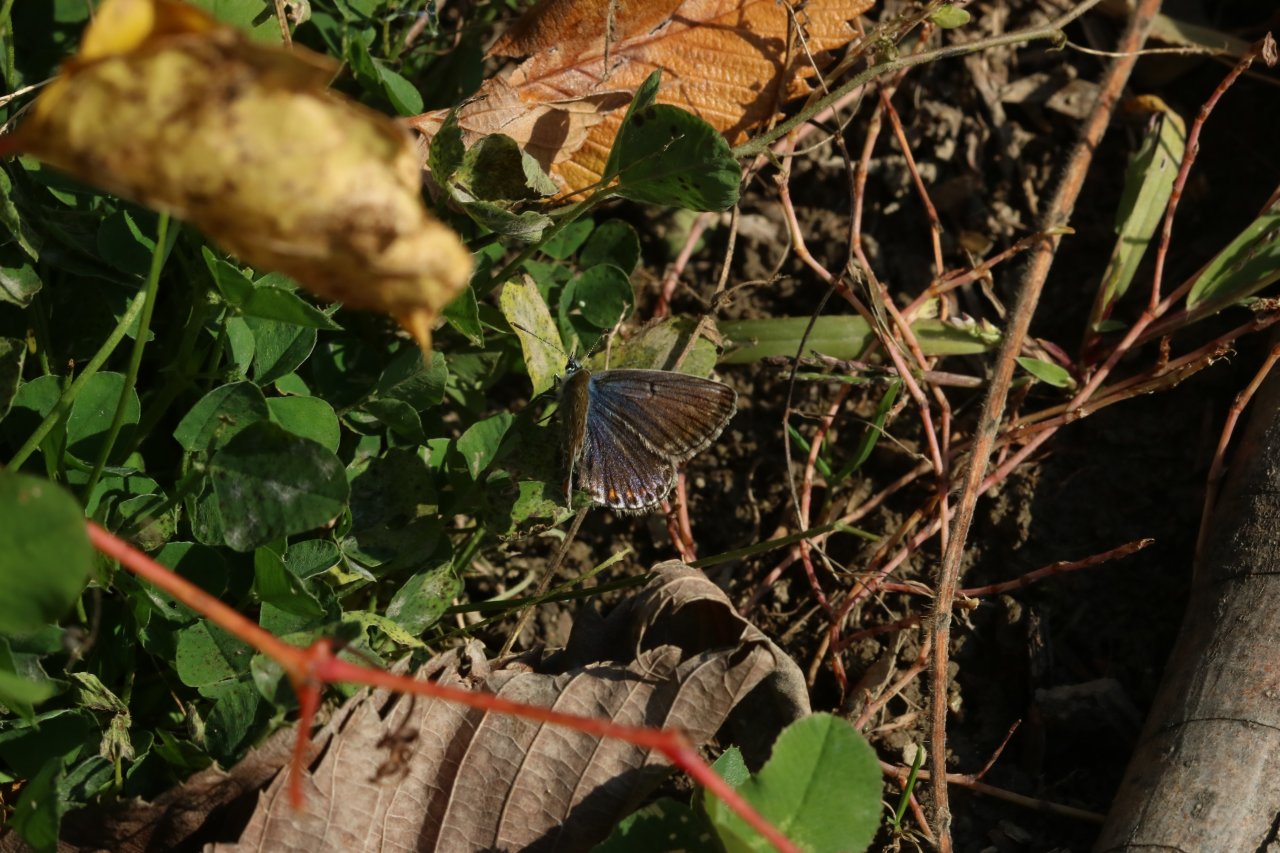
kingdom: Animalia
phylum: Arthropoda
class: Insecta
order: Lepidoptera
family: Lycaenidae
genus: Polyommatus
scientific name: Polyommatus icarus
